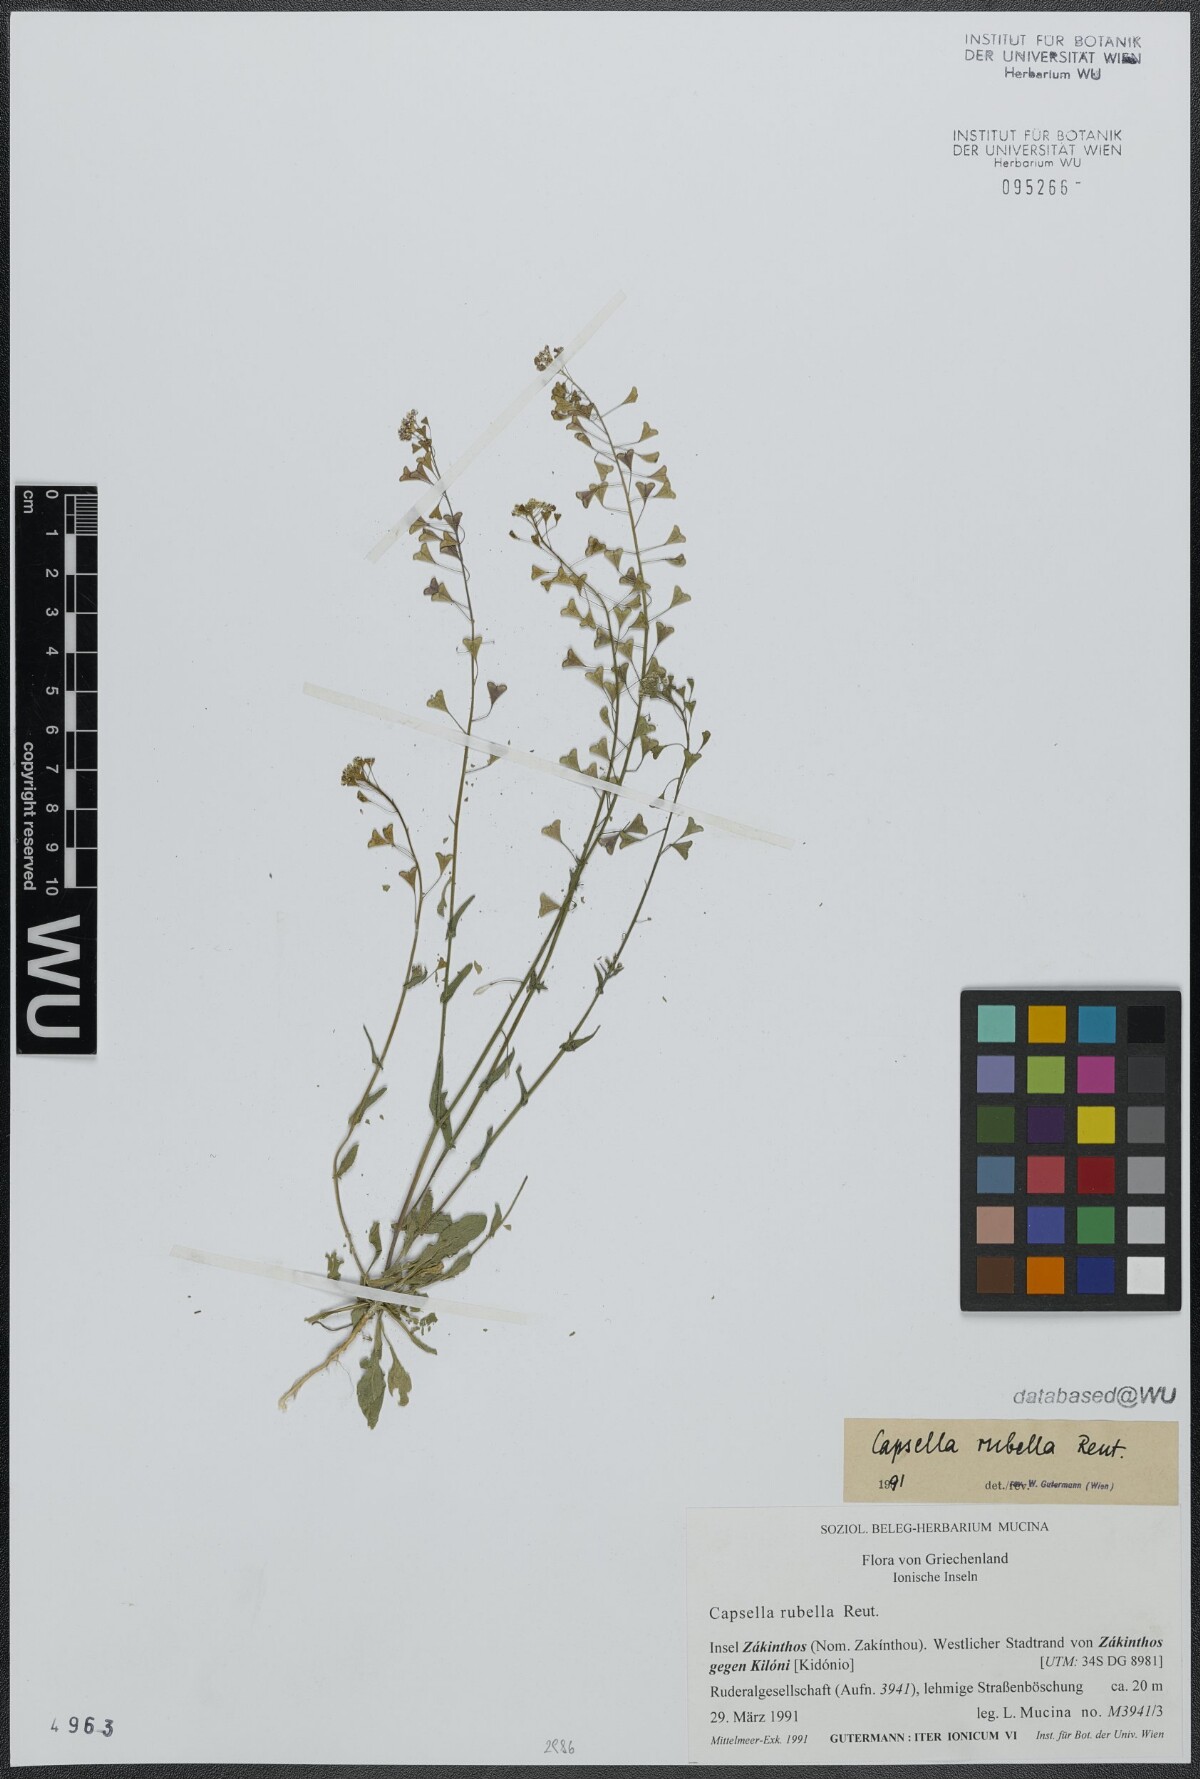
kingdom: Plantae
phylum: Tracheophyta
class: Magnoliopsida
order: Brassicales
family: Brassicaceae
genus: Capsella
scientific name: Capsella rubella
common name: Pink shepherd's-purse
